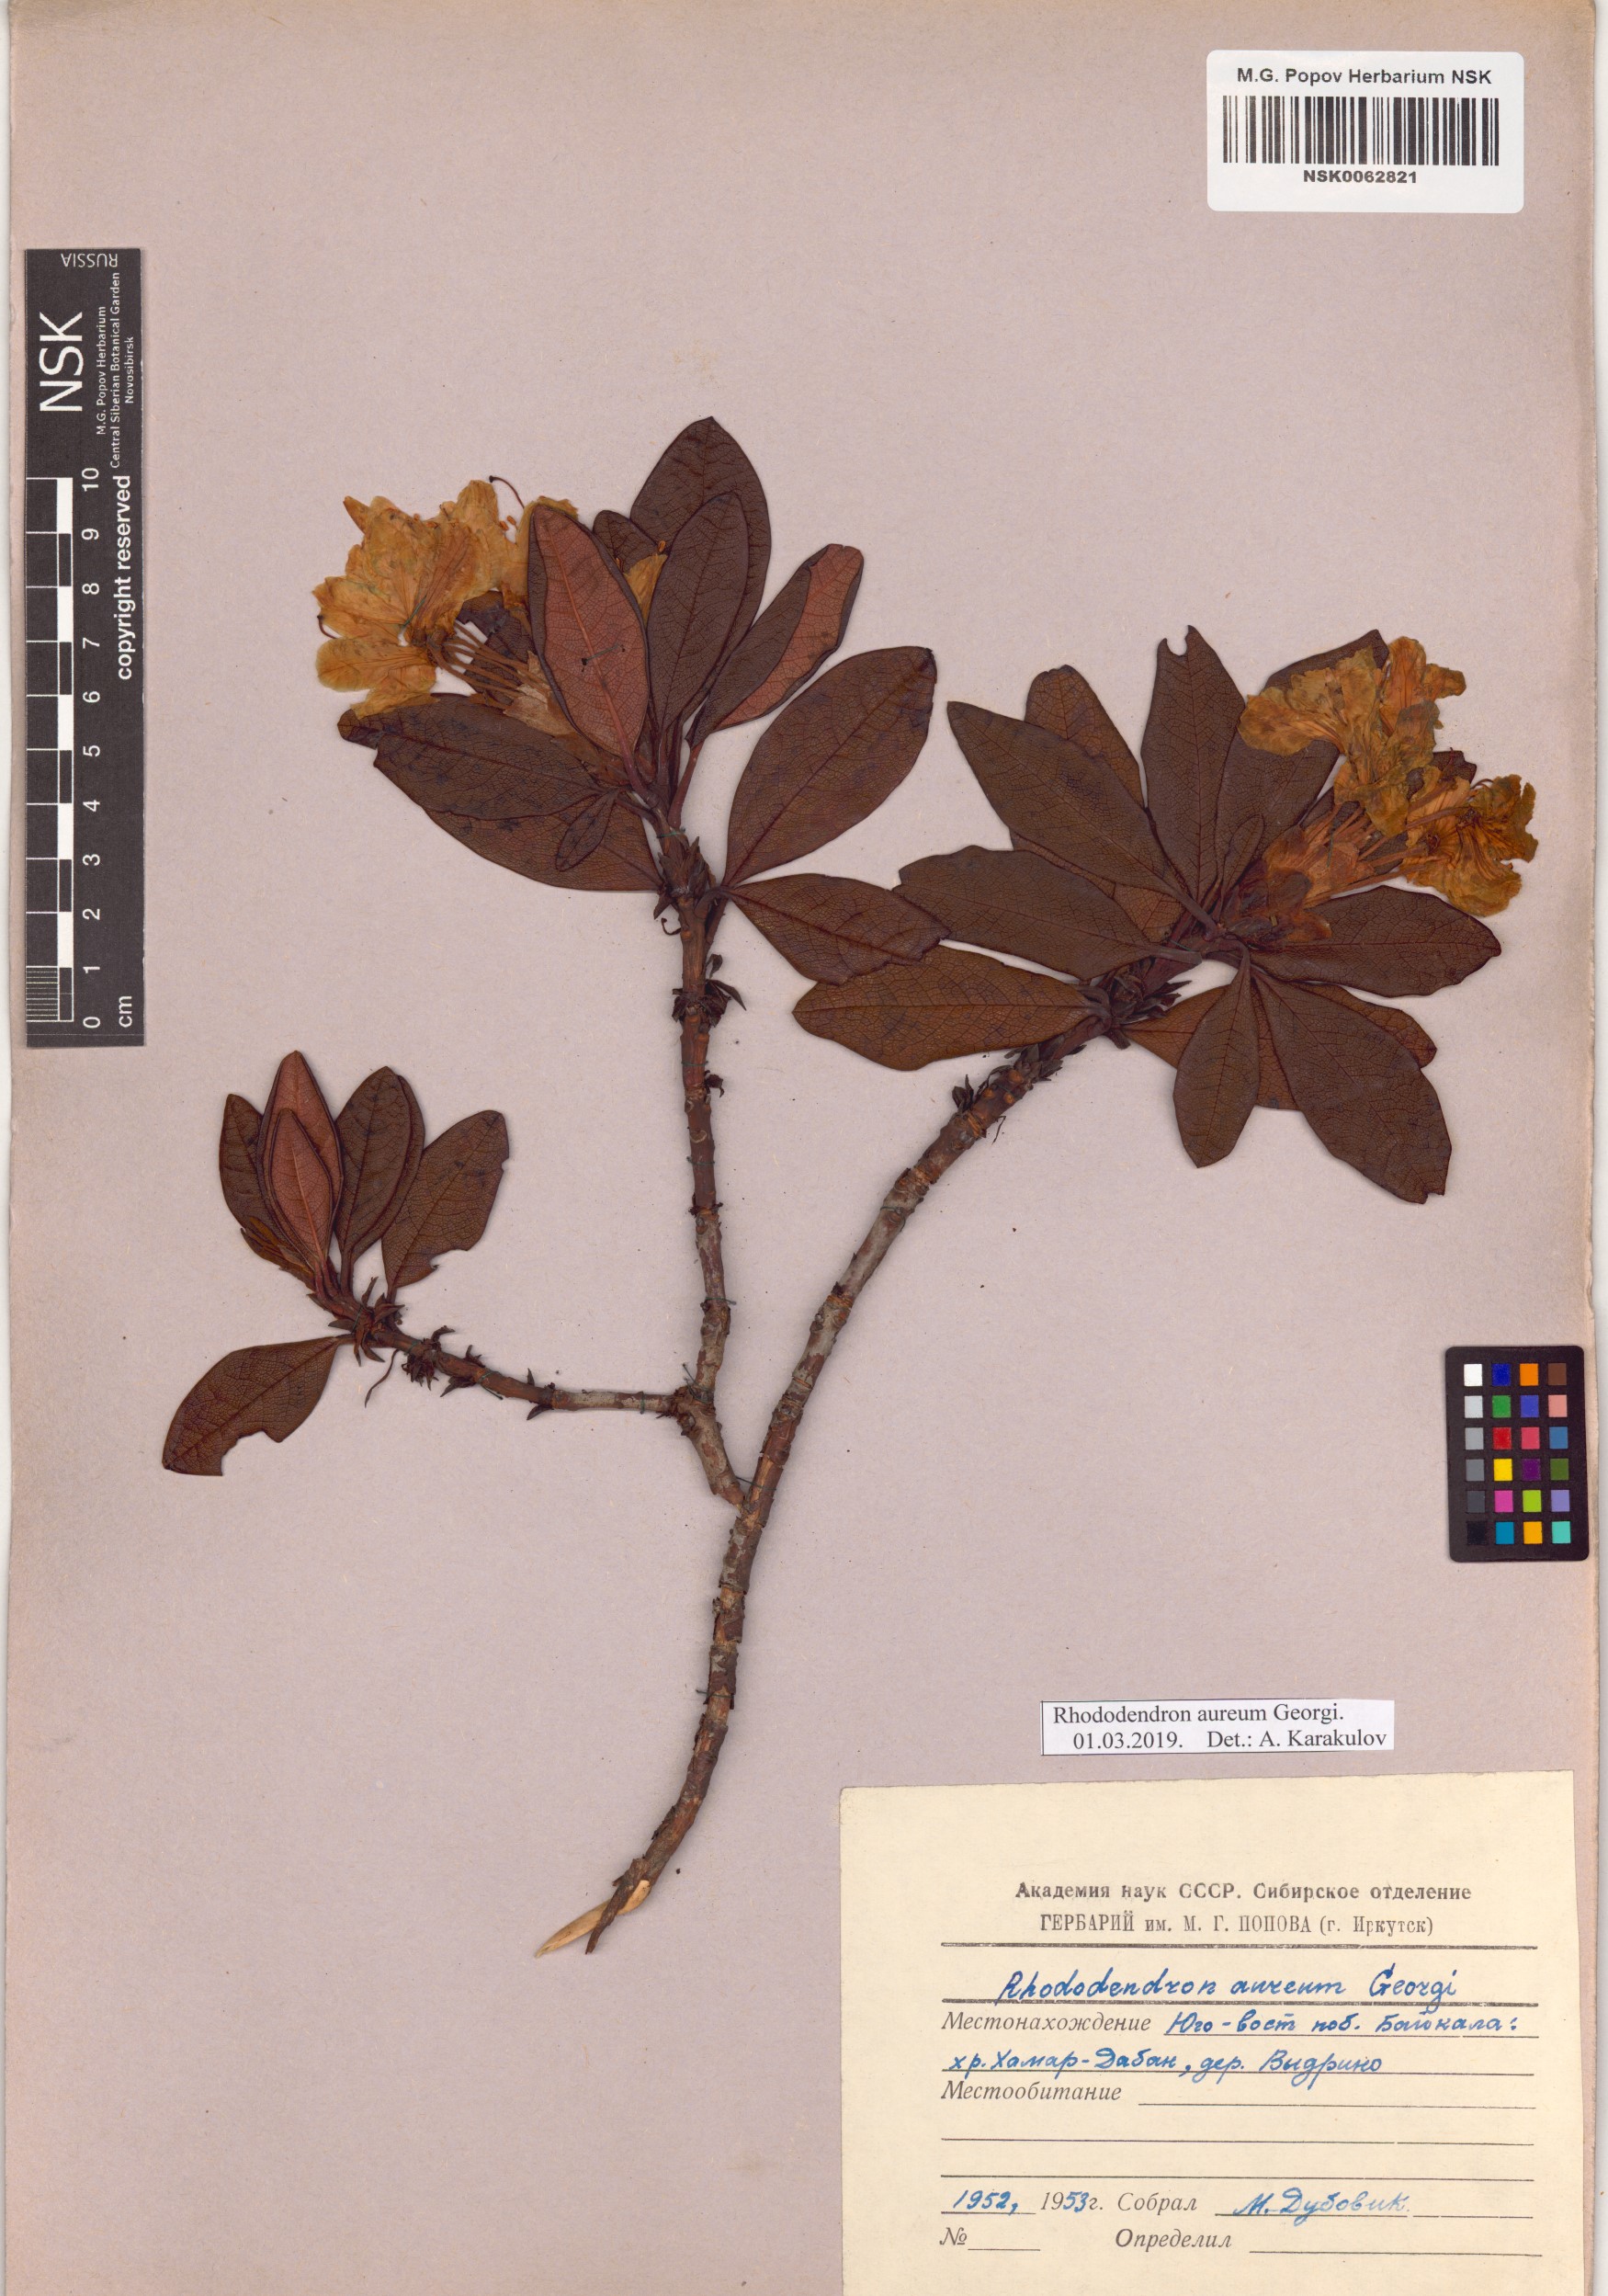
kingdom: Plantae
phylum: Tracheophyta
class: Magnoliopsida
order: Ericales
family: Ericaceae
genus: Rhododendron
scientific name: Rhododendron aureum
